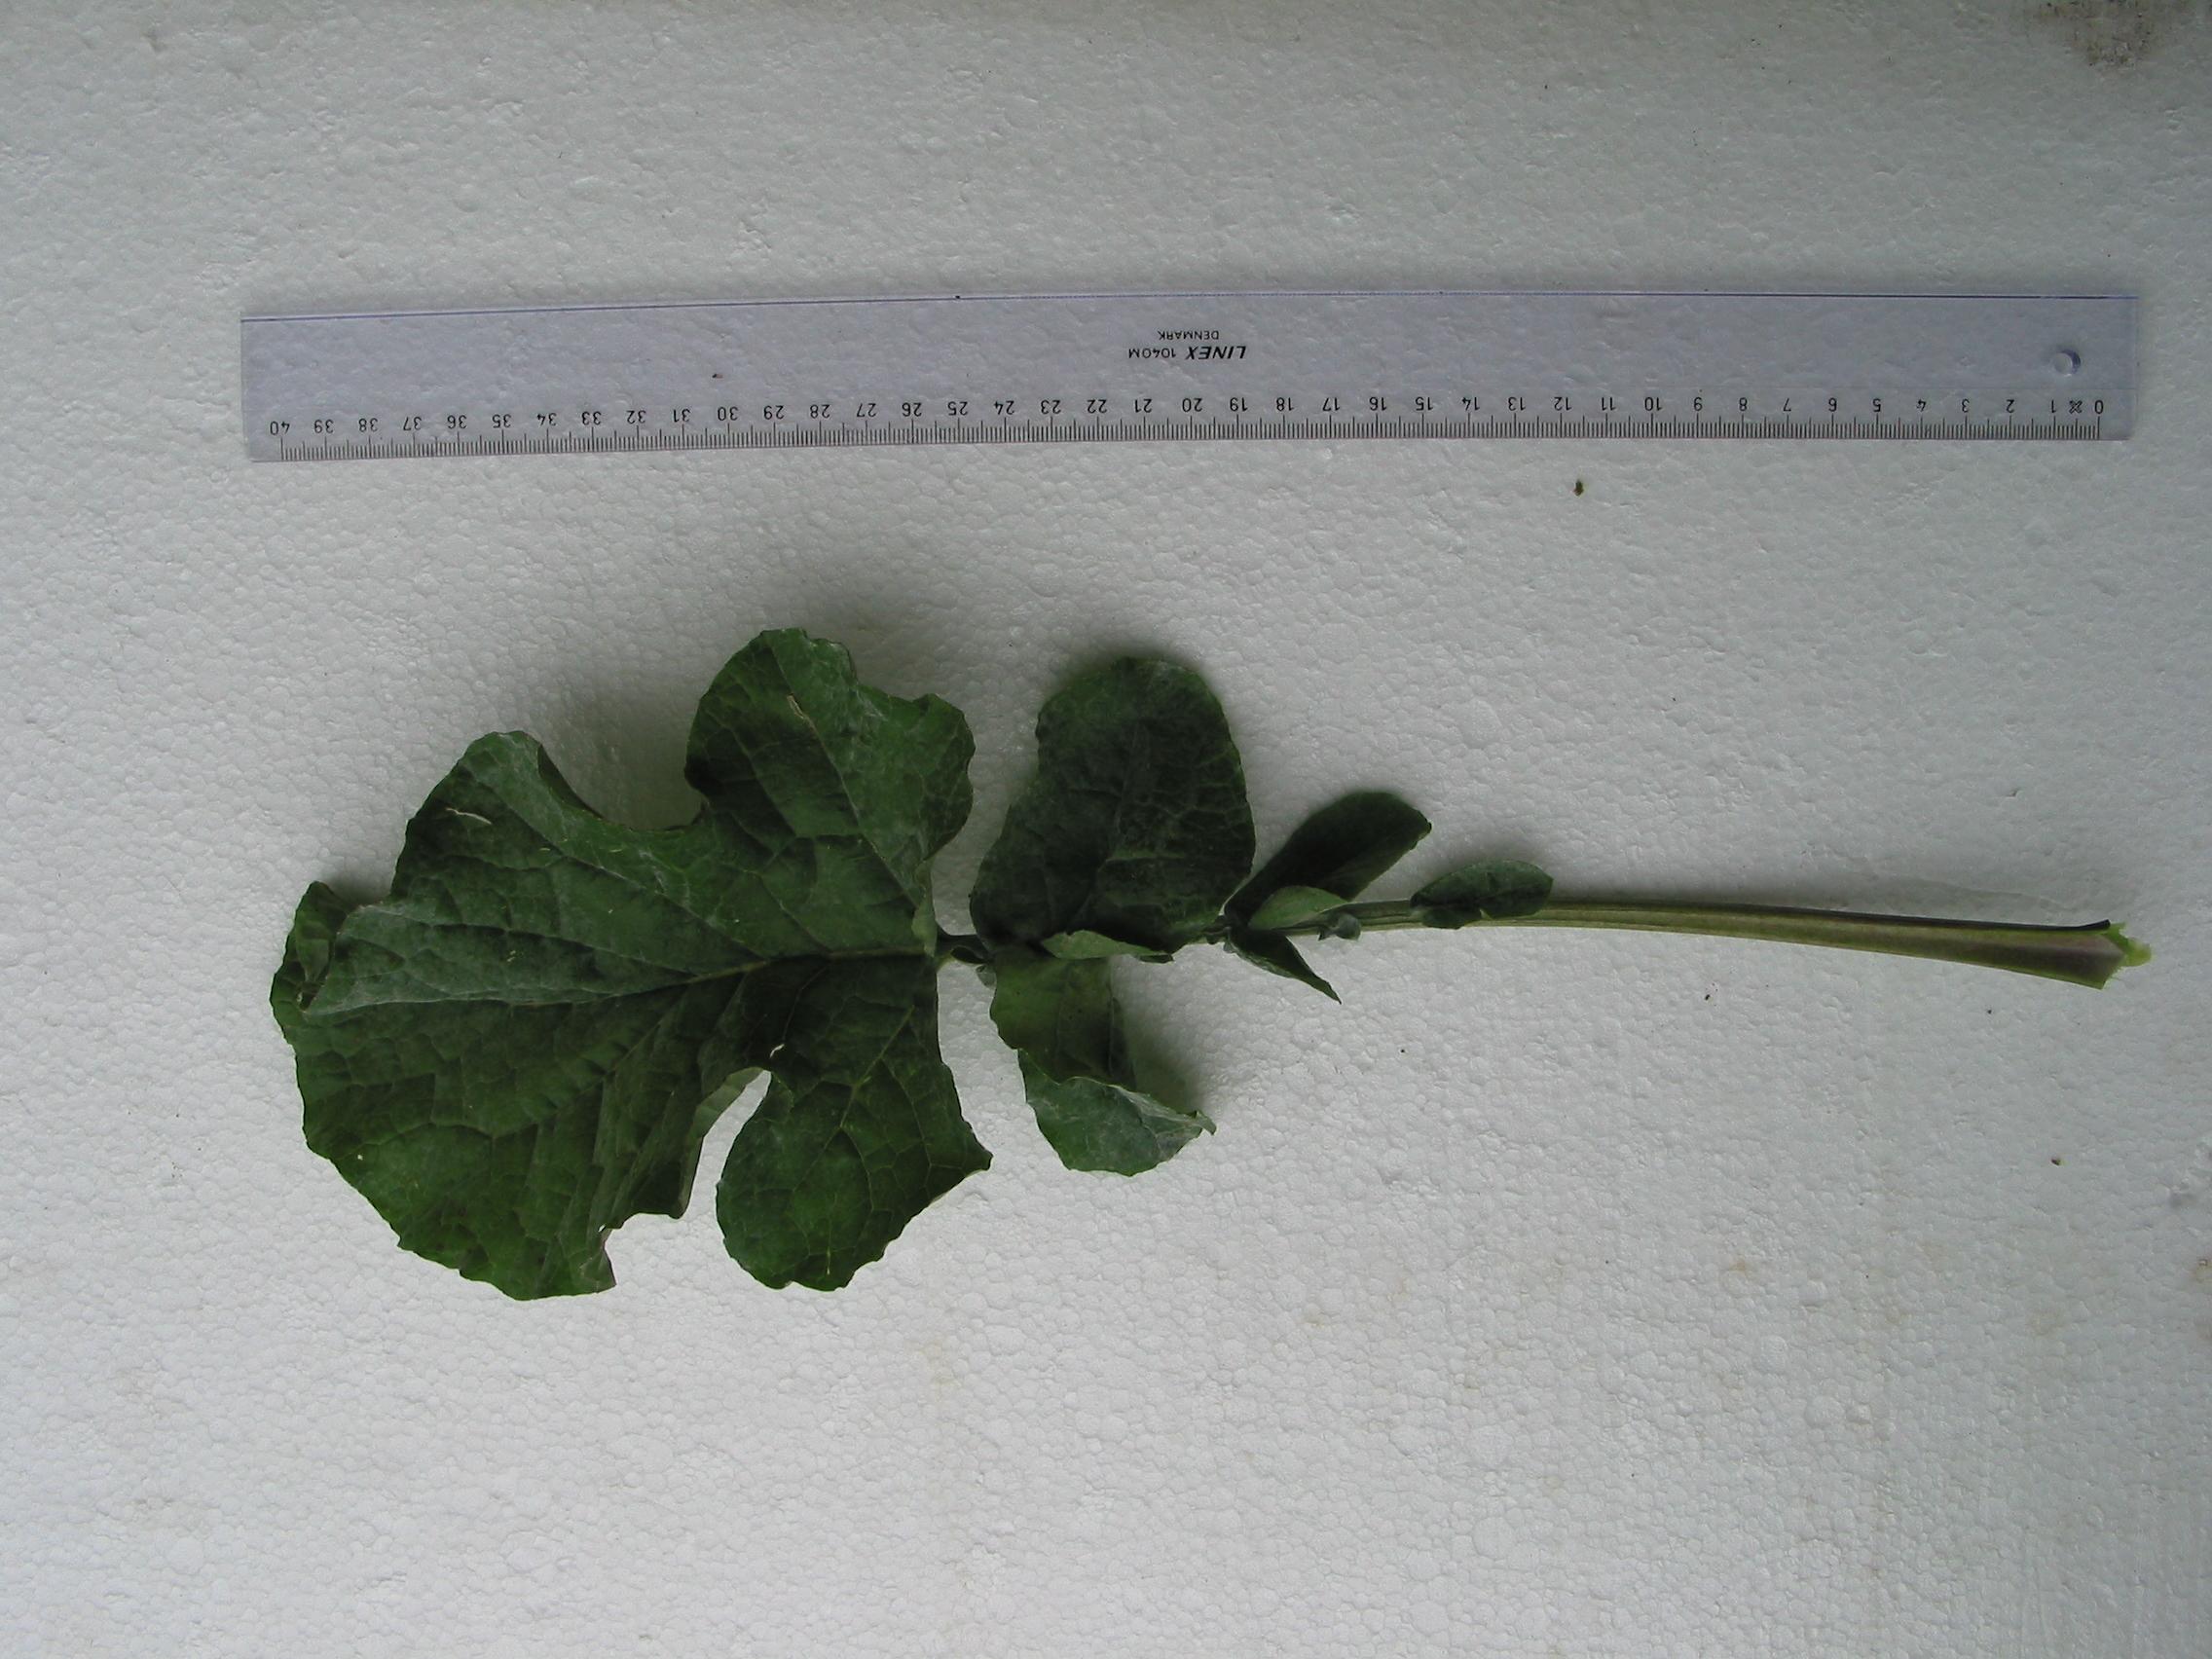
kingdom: Plantae
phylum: Tracheophyta
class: Magnoliopsida
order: Brassicales
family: Brassicaceae
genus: Brassica
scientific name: Brassica napus
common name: Rape
